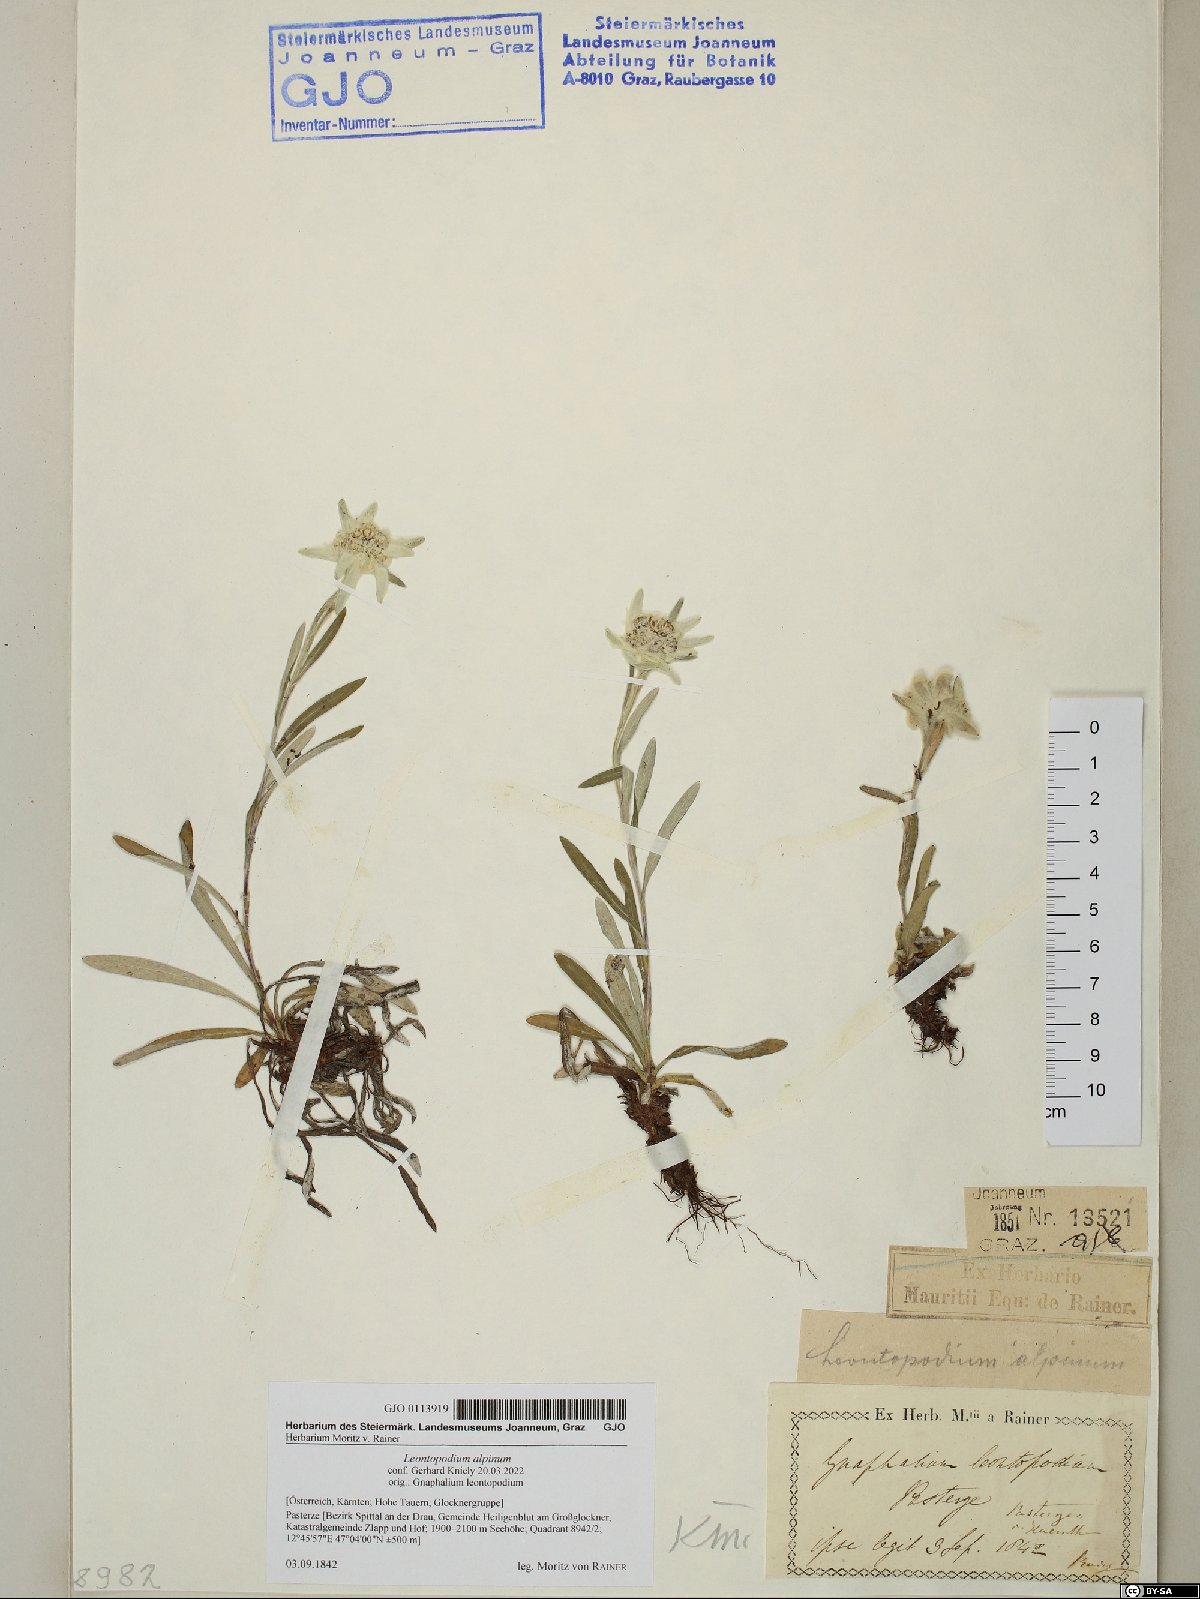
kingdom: Plantae
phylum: Tracheophyta
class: Magnoliopsida
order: Asterales
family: Asteraceae
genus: Leontopodium
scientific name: Leontopodium nivale
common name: Edelweiss
